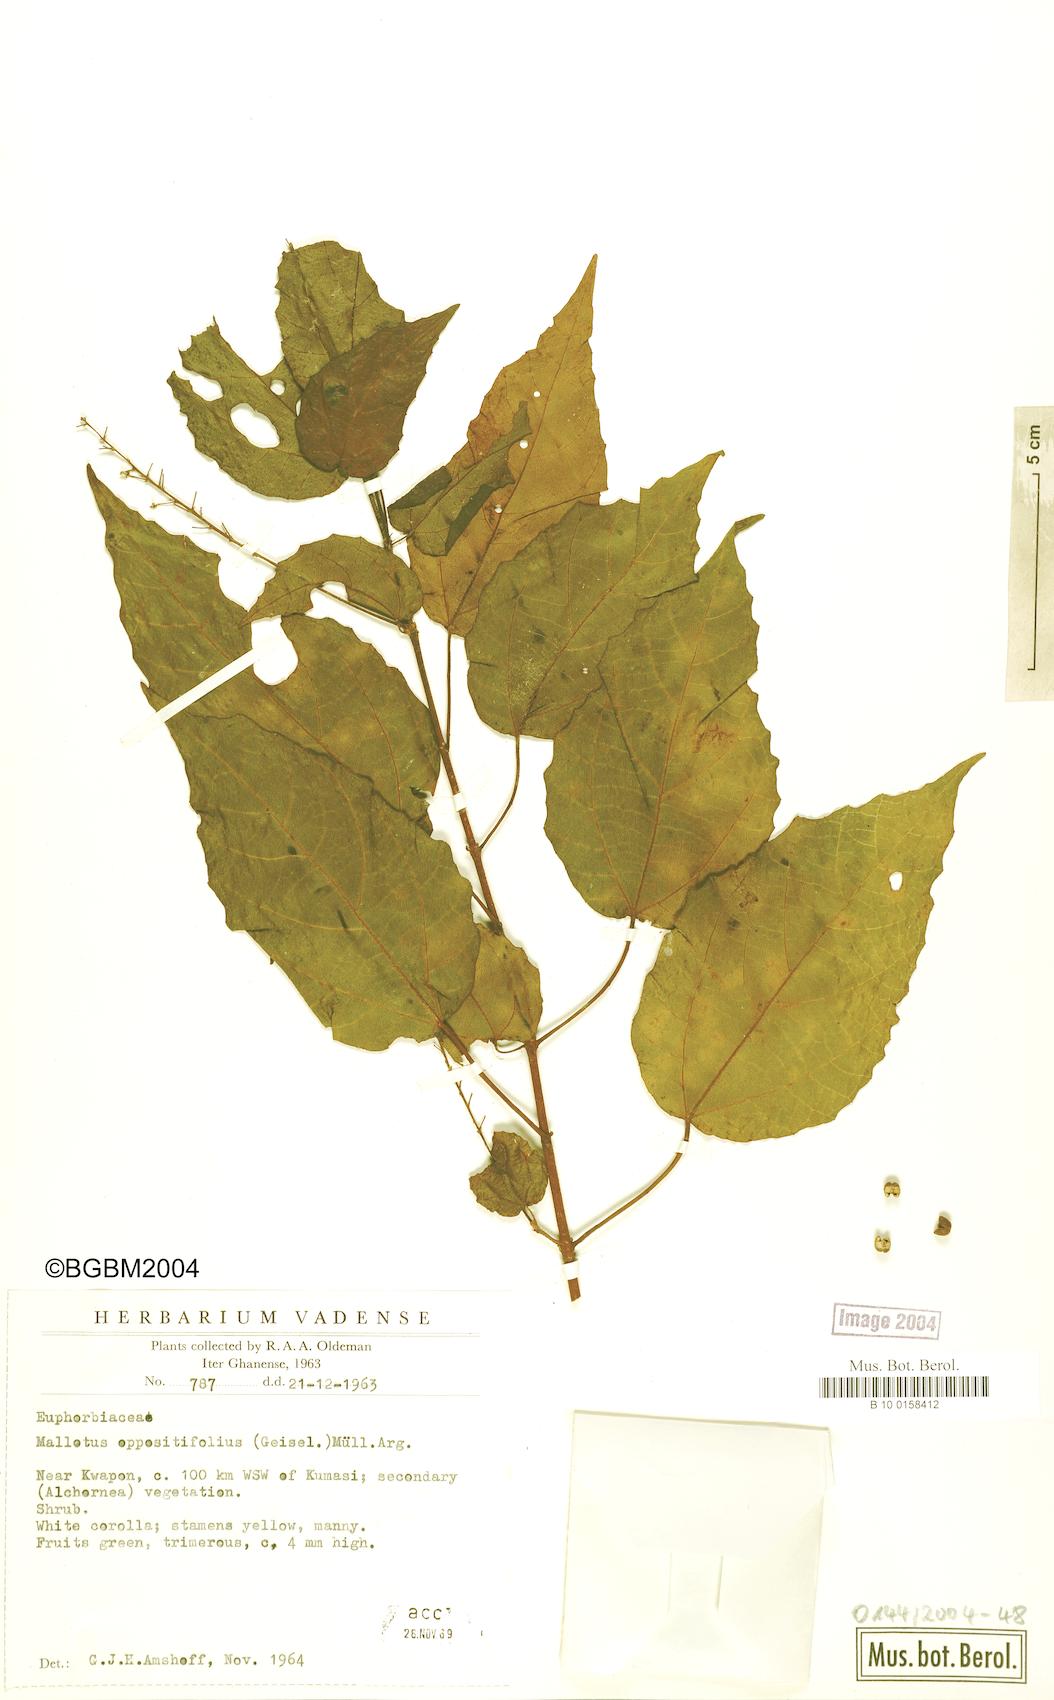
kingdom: Plantae
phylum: Tracheophyta
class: Magnoliopsida
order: Malpighiales
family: Euphorbiaceae
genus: Mallotus
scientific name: Mallotus oppositifolius
